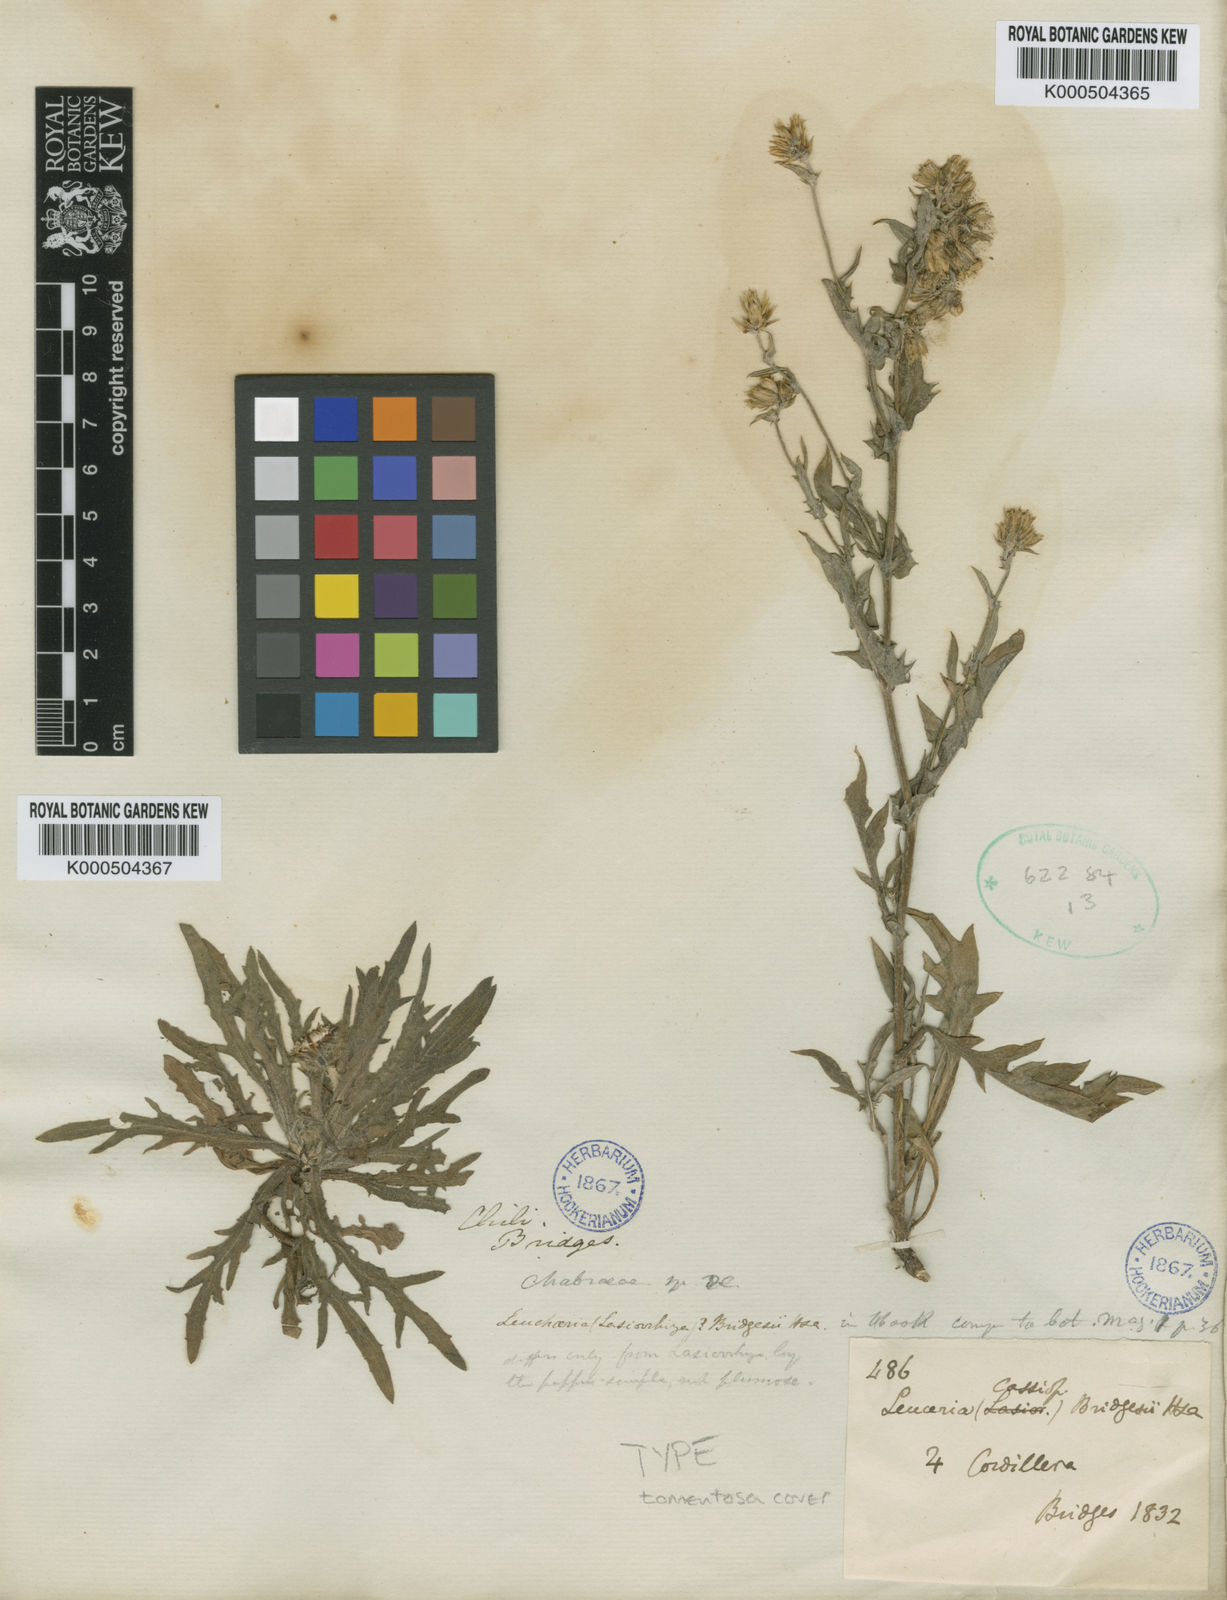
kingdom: Plantae
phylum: Tracheophyta
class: Magnoliopsida
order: Asterales
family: Asteraceae
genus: Leucheria
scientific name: Leucheria tomentosa
